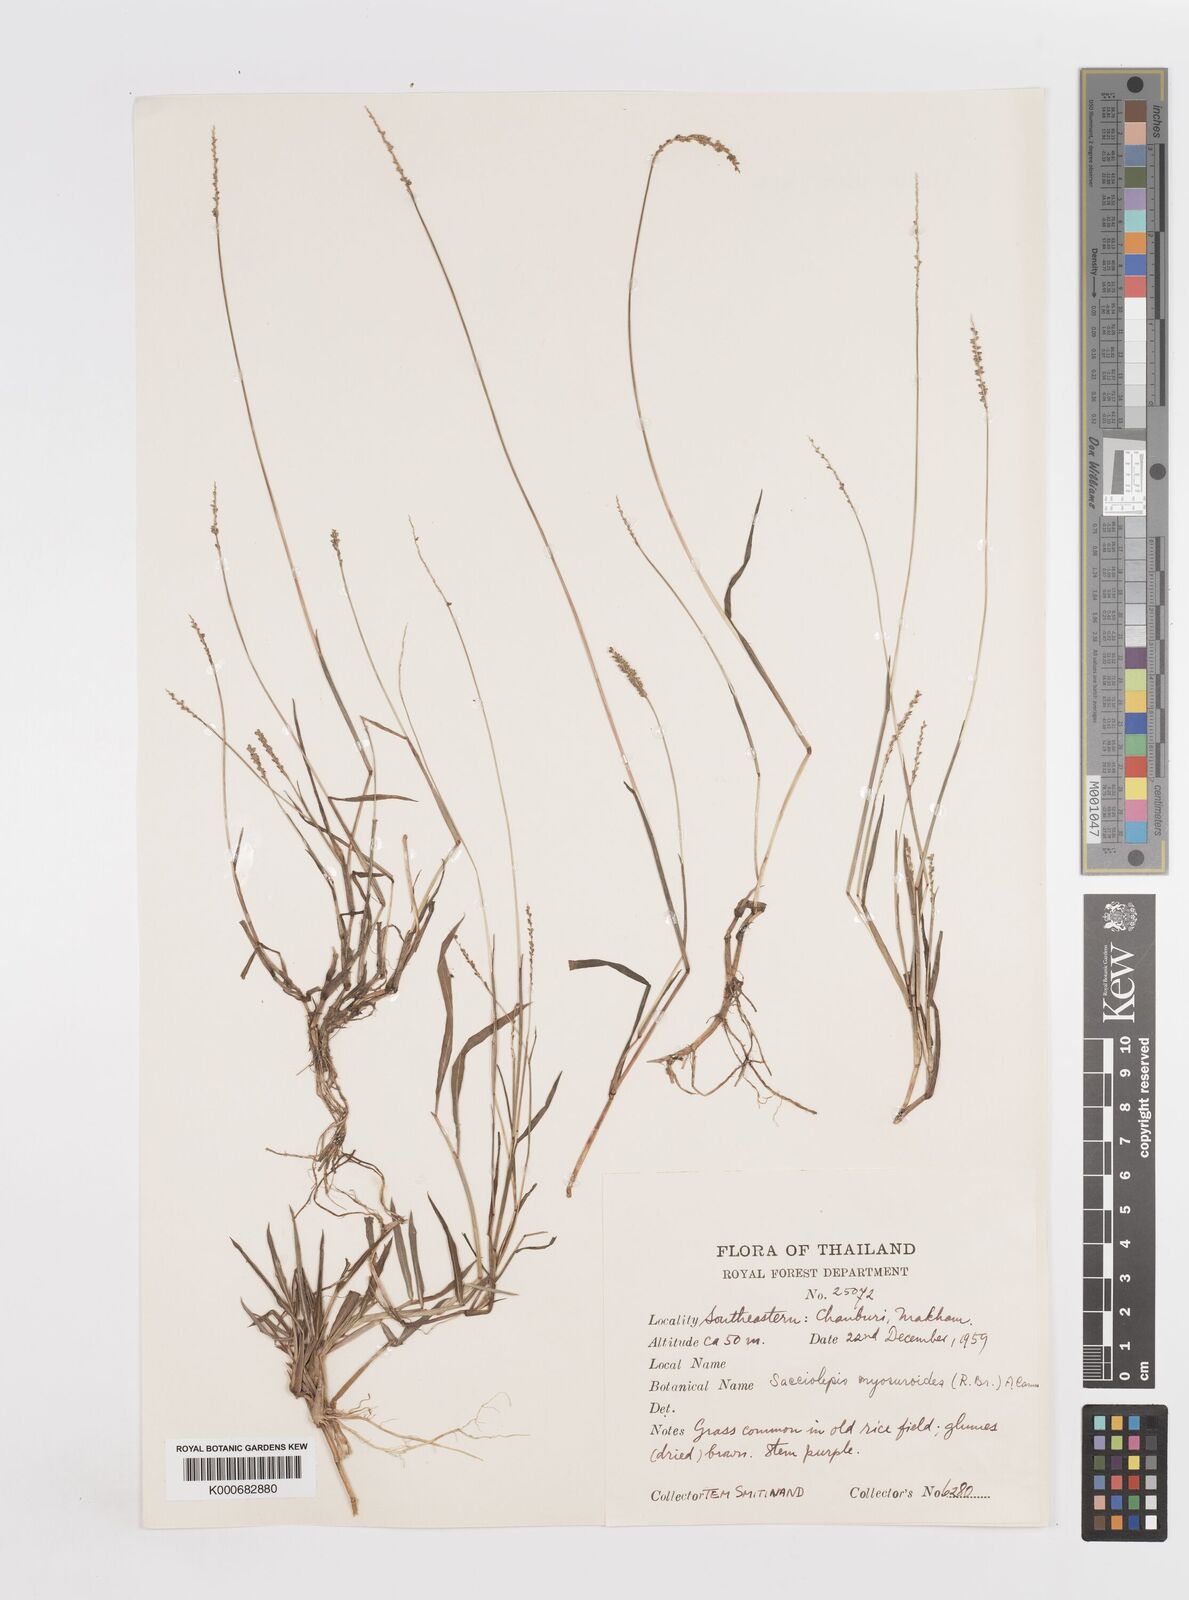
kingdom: Plantae
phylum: Tracheophyta
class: Liliopsida
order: Poales
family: Poaceae
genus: Sacciolepis
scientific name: Sacciolepis myosuroides
